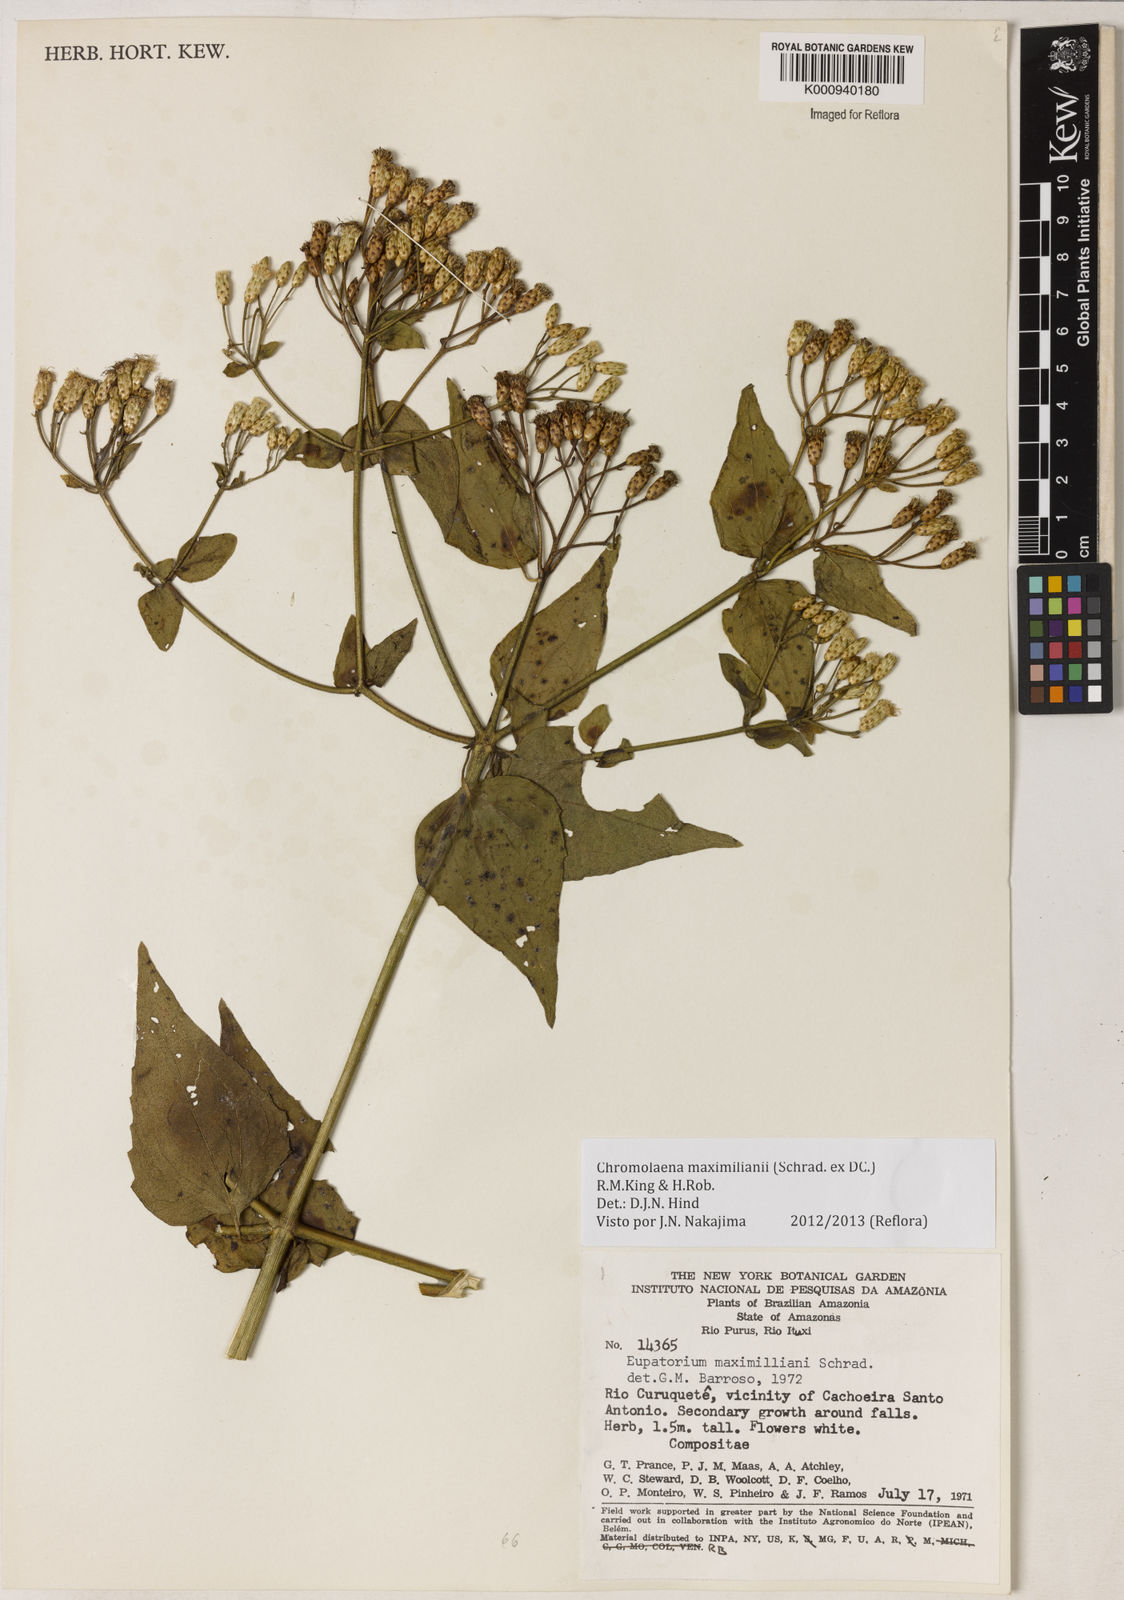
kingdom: Plantae
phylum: Tracheophyta
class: Magnoliopsida
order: Asterales
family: Asteraceae
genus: Chromolaena
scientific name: Chromolaena maximiliani
